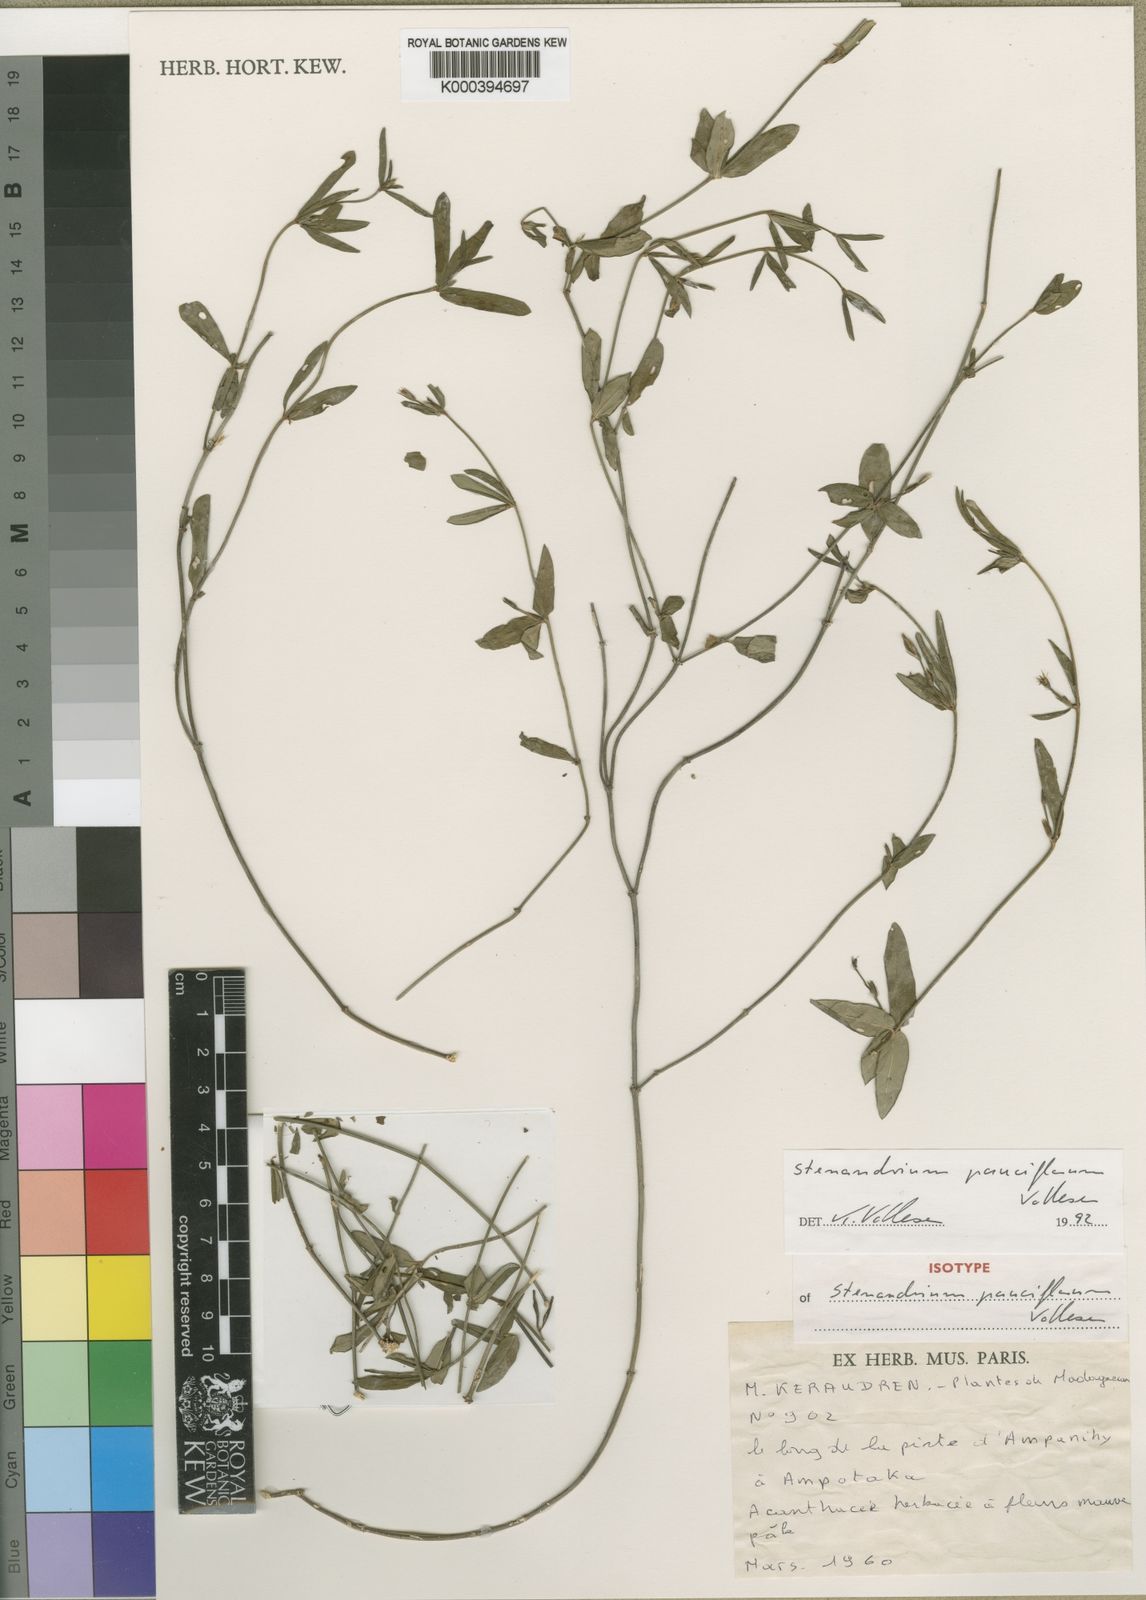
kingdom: Plantae
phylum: Tracheophyta
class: Magnoliopsida
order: Lamiales
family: Acanthaceae
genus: Stenandriopsis
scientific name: Stenandriopsis pauciflora
